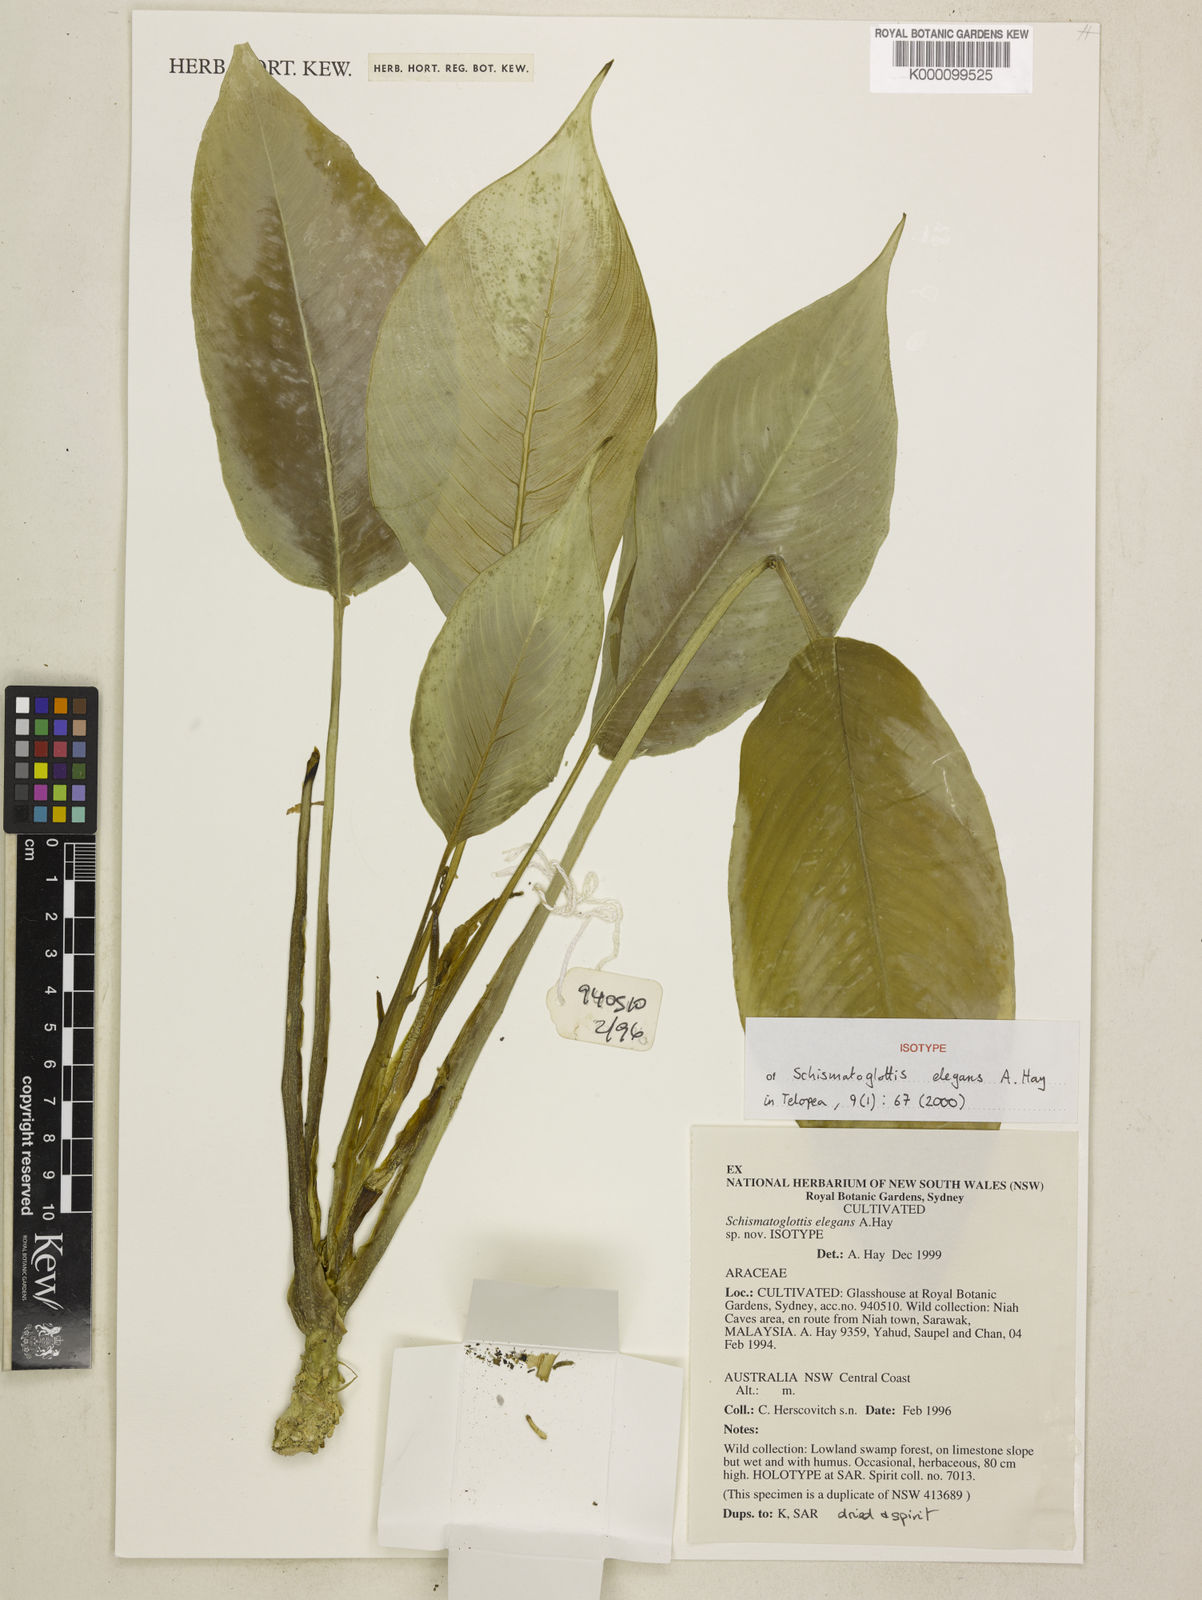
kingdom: Plantae
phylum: Tracheophyta
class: Liliopsida
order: Alismatales
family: Araceae
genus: Schismatoglottis
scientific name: Schismatoglottis elegans
